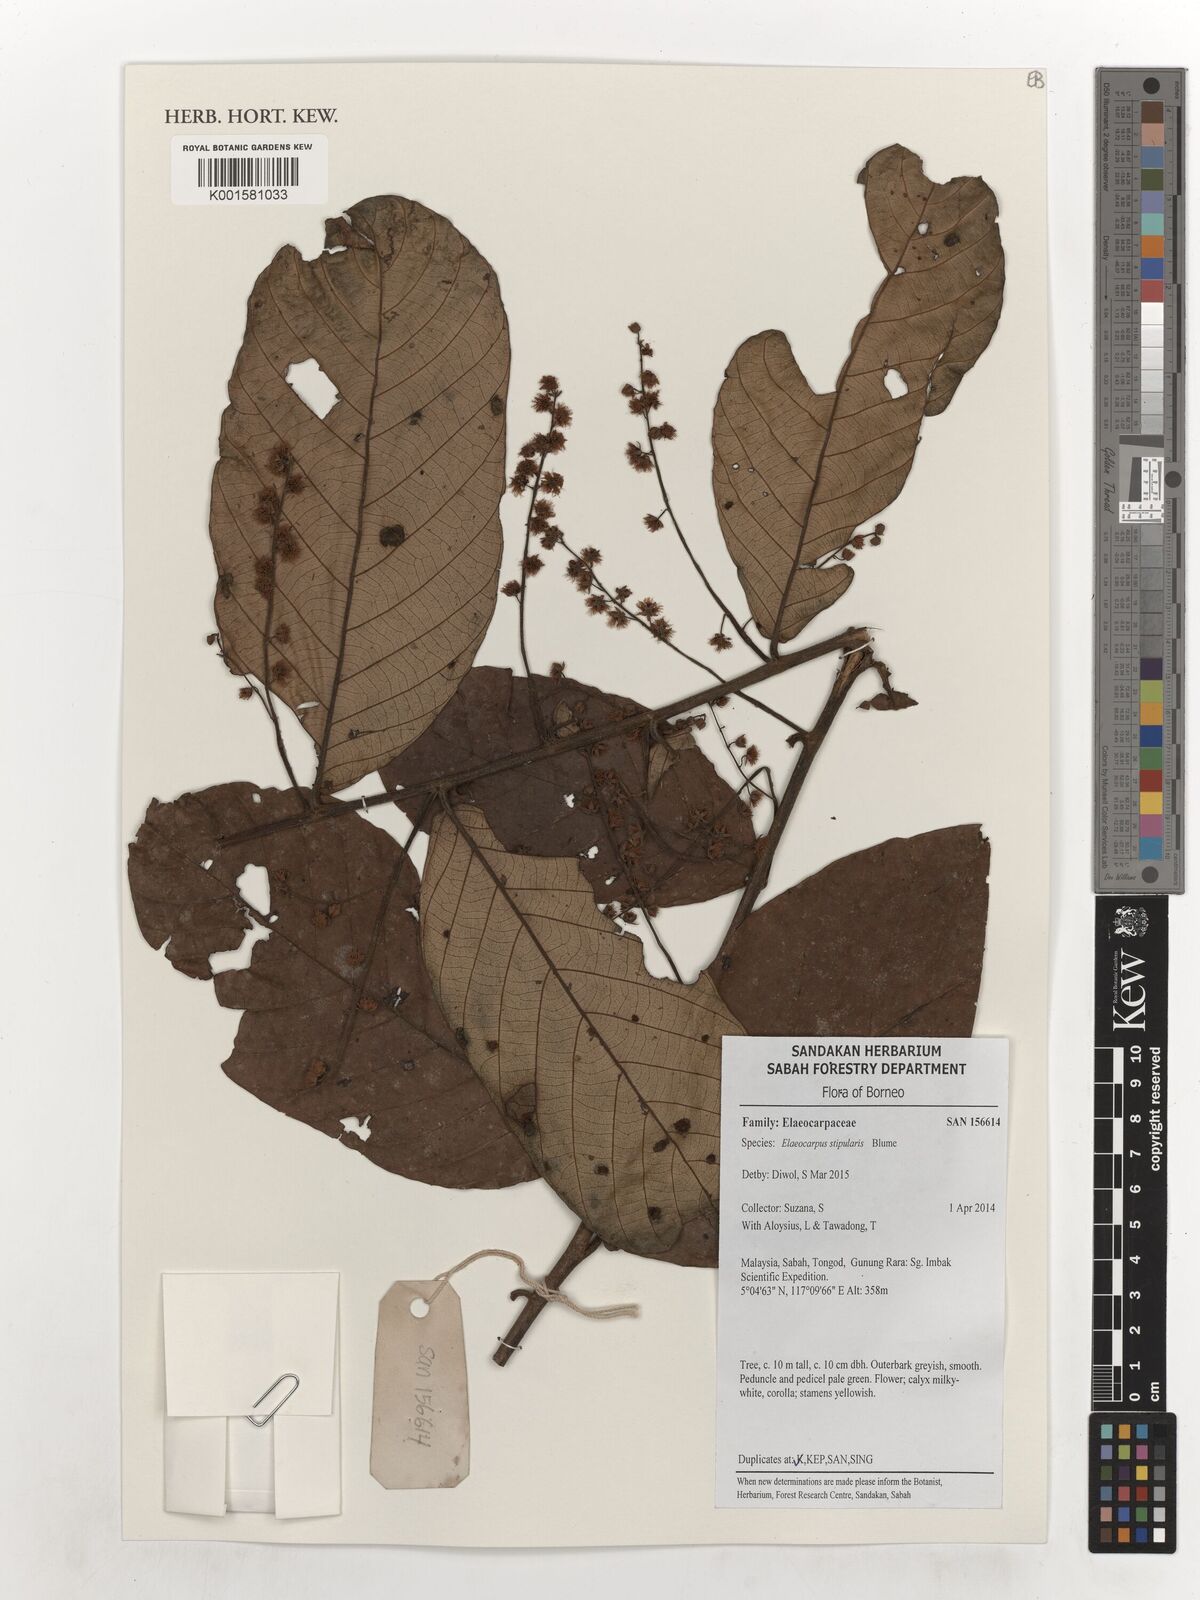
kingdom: Plantae
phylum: Tracheophyta
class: Magnoliopsida
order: Oxalidales
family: Elaeocarpaceae
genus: Elaeocarpus
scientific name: Elaeocarpus stipularis
